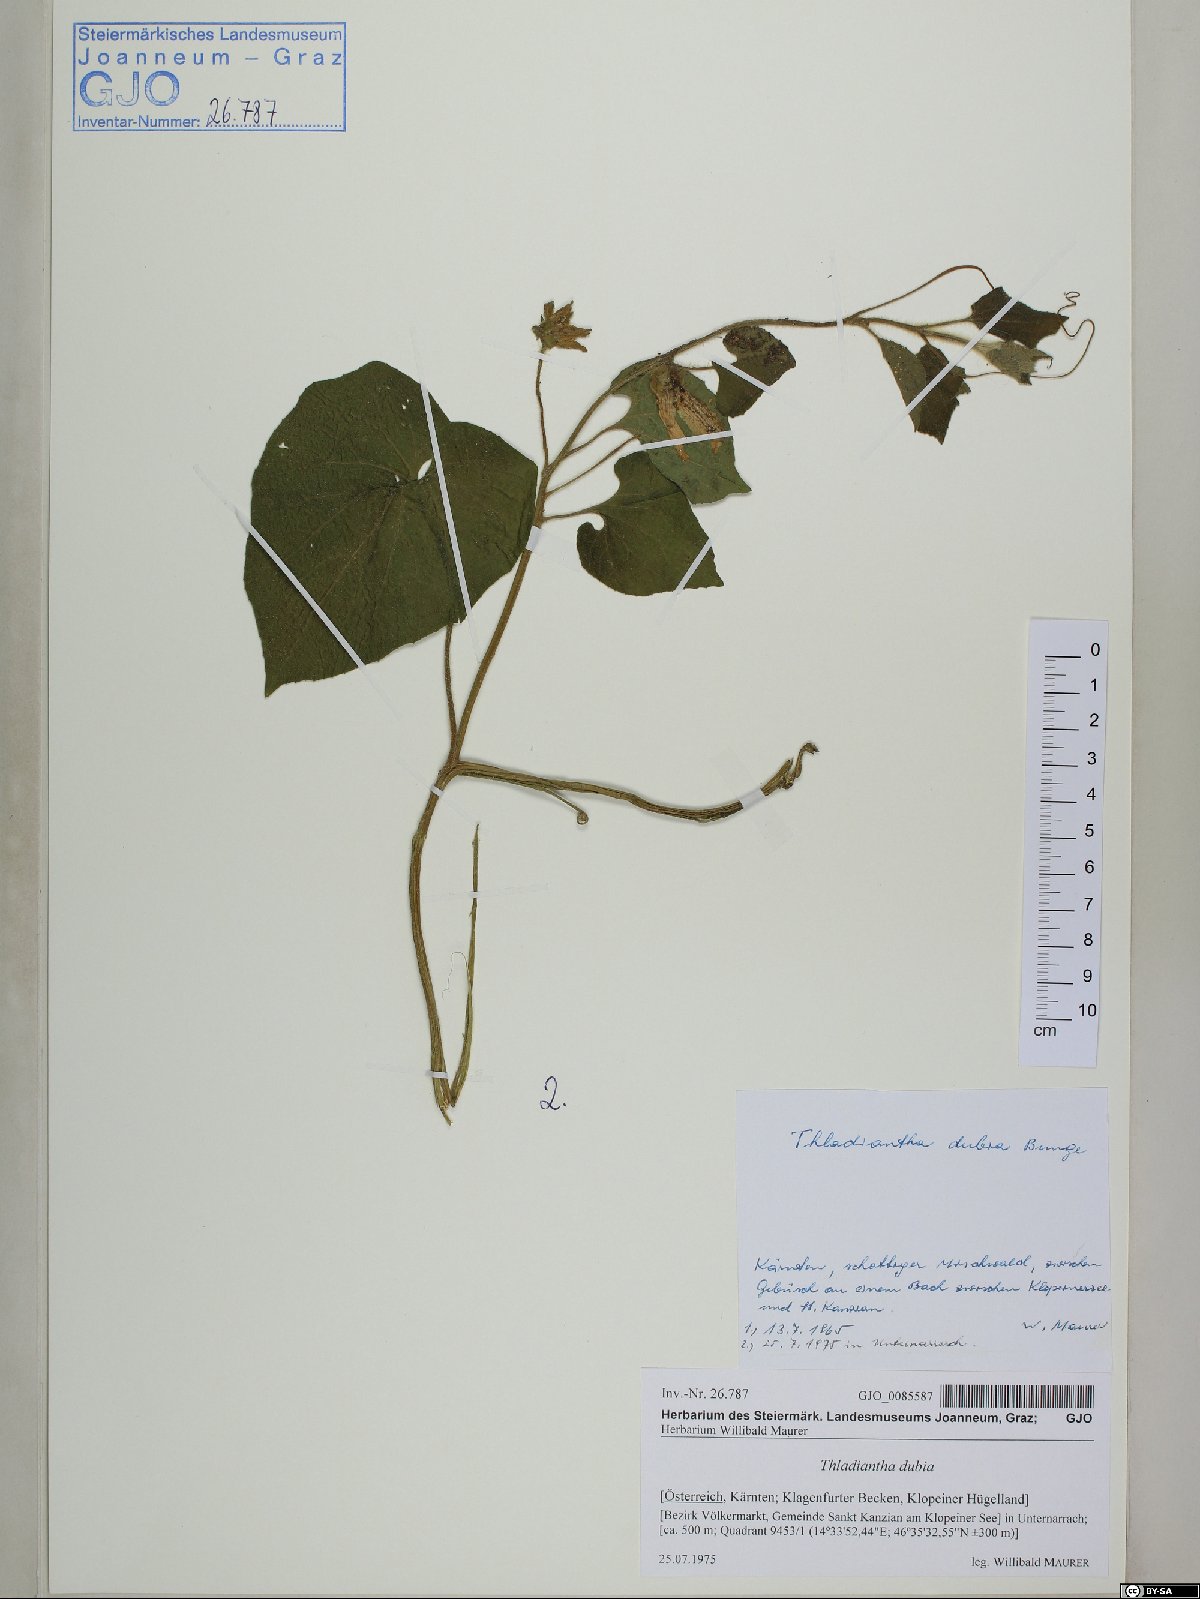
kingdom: Plantae
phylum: Tracheophyta
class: Magnoliopsida
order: Cucurbitales
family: Cucurbitaceae
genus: Thladiantha
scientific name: Thladiantha dubia
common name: Manchu tubergourd
